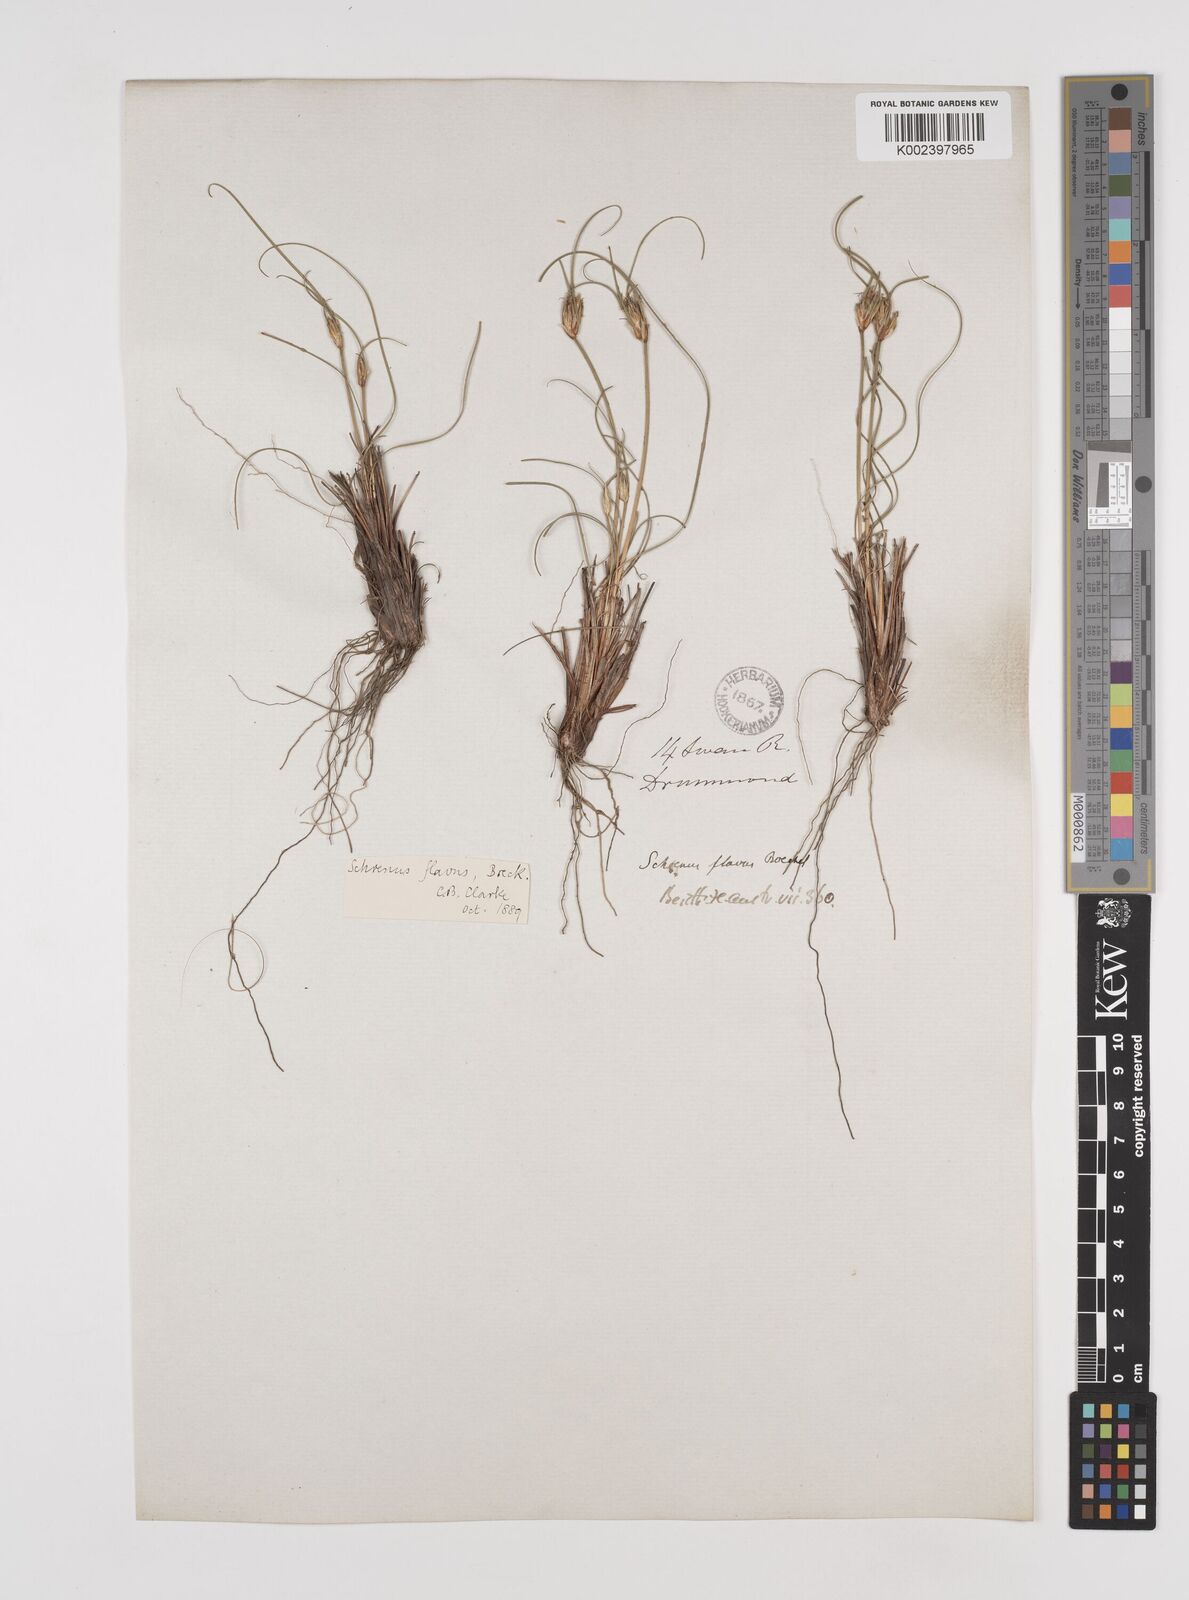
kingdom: Plantae
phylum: Tracheophyta
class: Liliopsida
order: Poales
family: Cyperaceae
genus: Schoenus
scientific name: Schoenus subflavus
